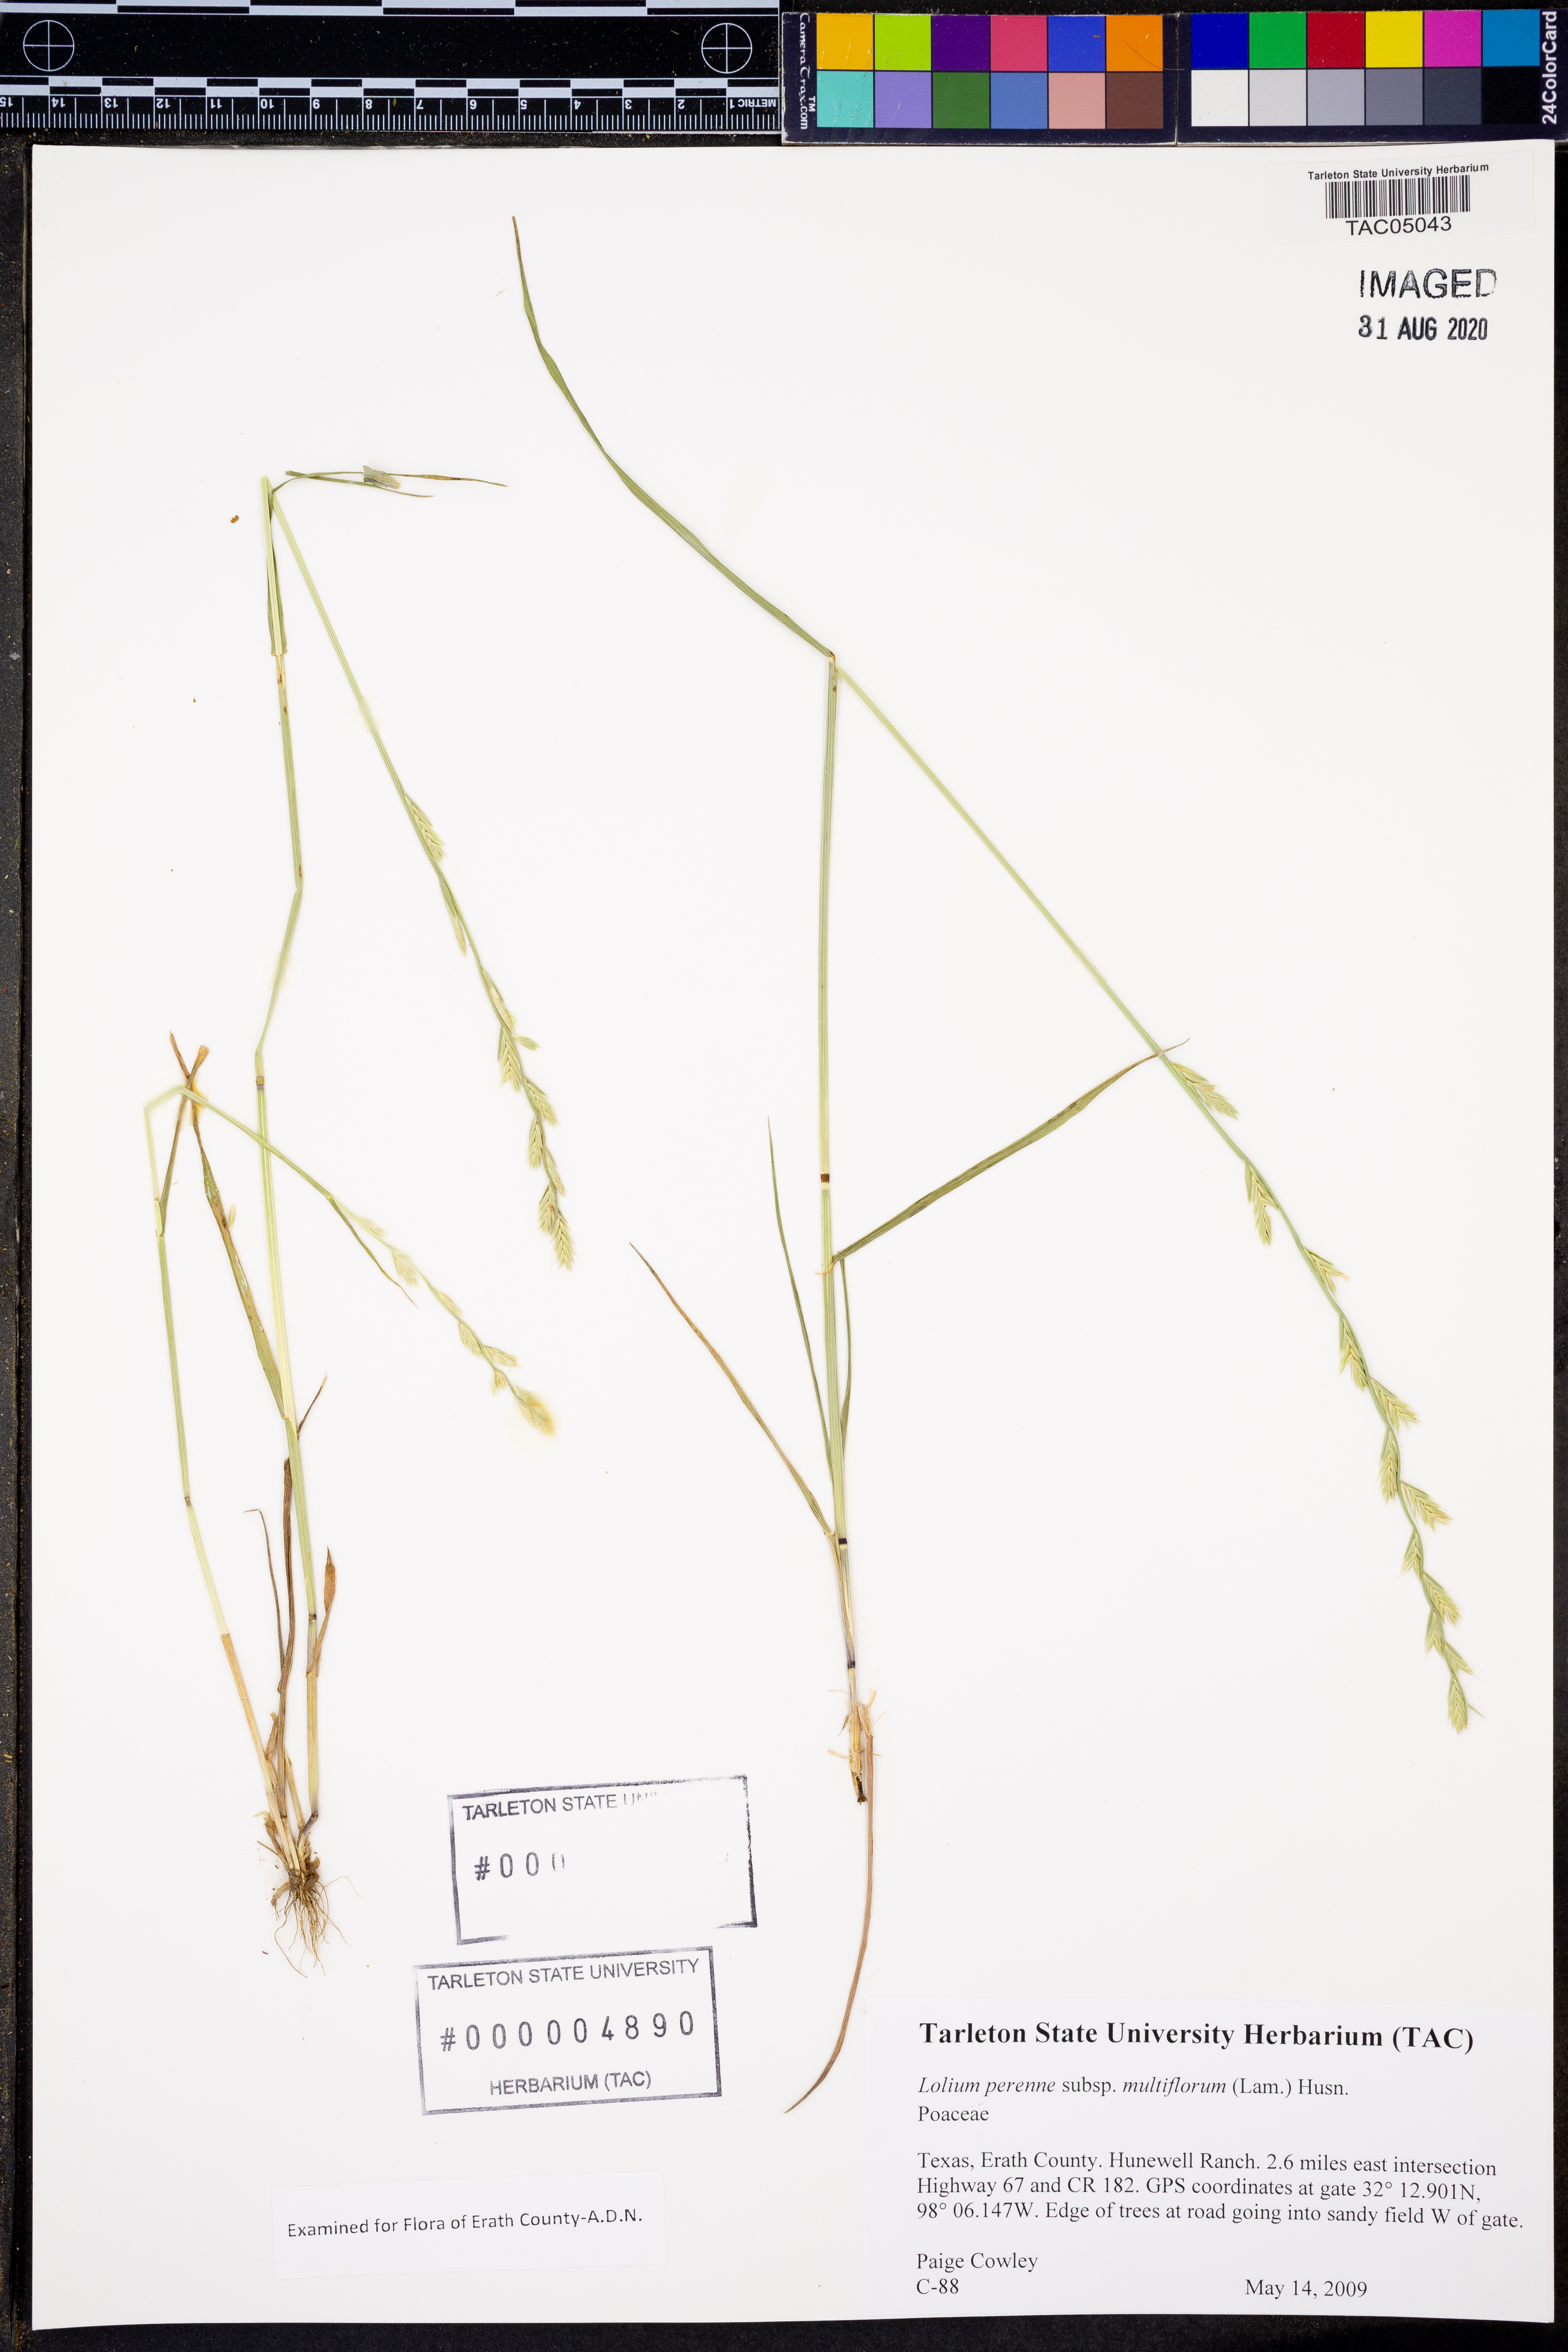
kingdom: Plantae
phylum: Tracheophyta
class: Liliopsida
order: Poales
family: Poaceae
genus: Lolium
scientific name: Lolium multiflorum
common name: Annual ryegrass
